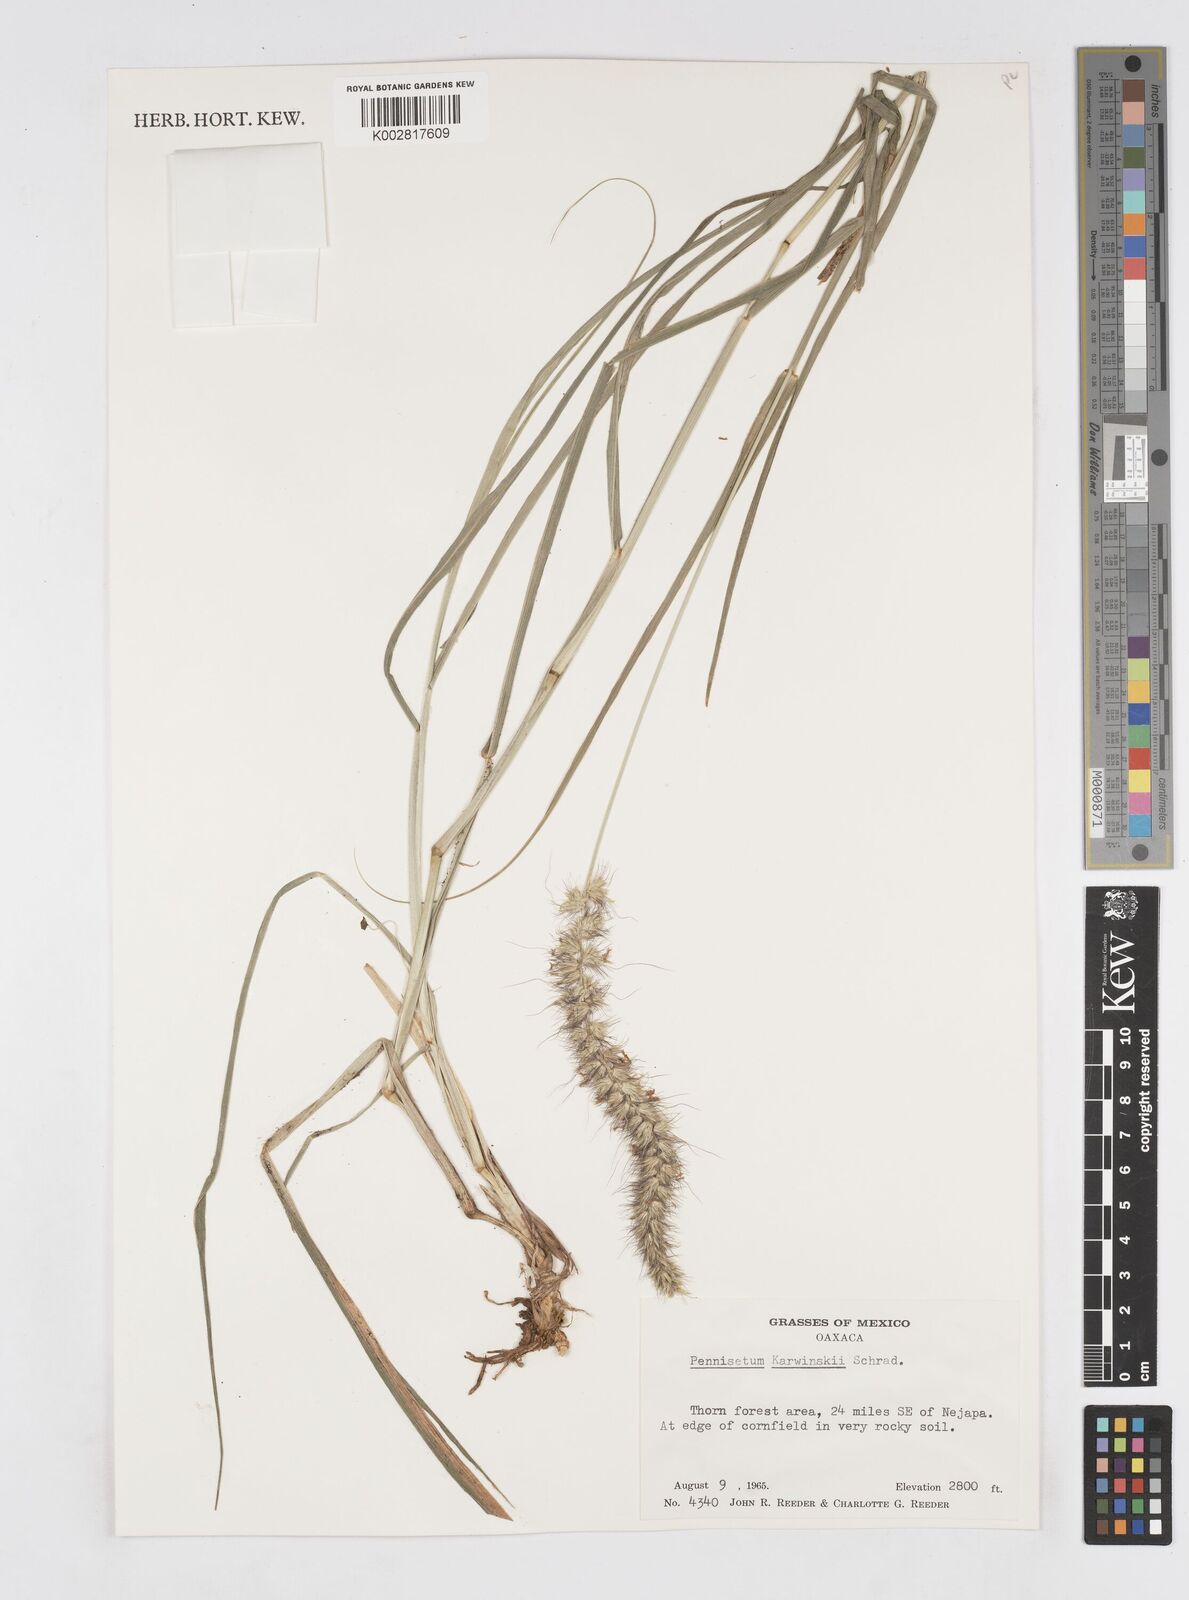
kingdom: Plantae
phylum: Tracheophyta
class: Liliopsida
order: Poales
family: Poaceae
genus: Cenchrus
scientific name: Cenchrus multiflorus
